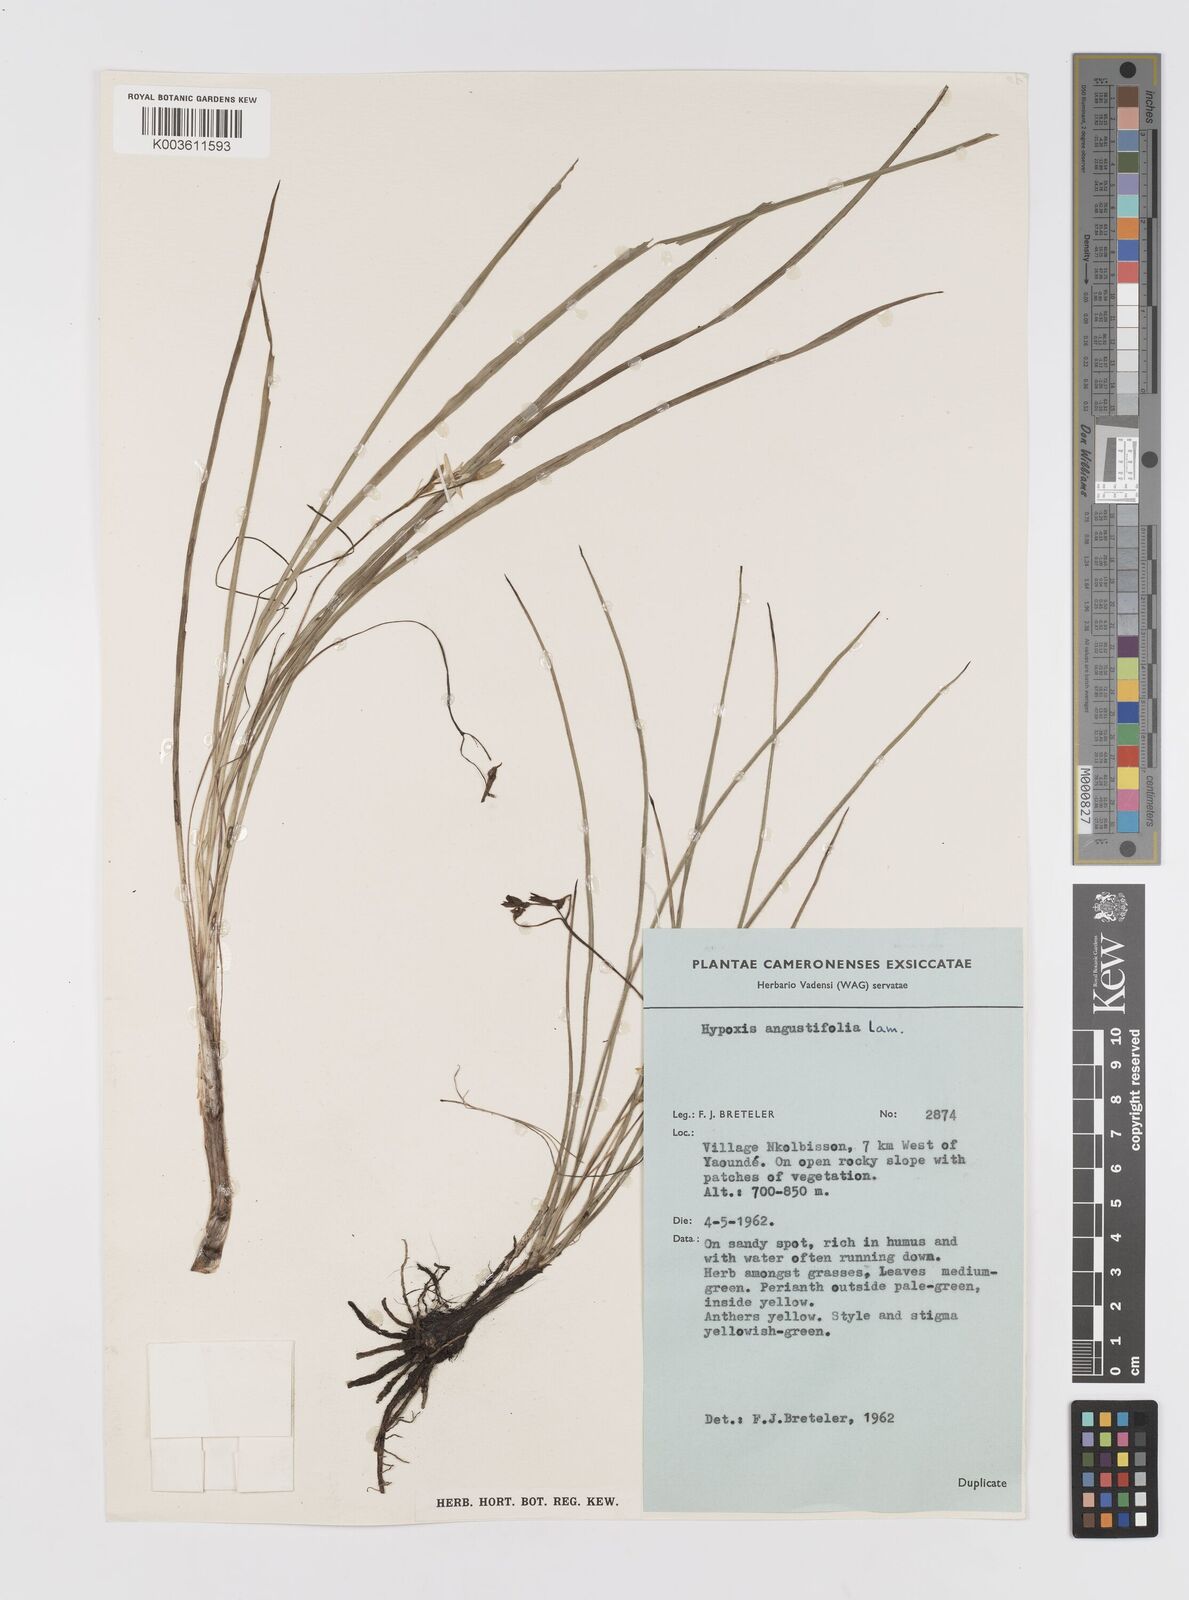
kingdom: Plantae
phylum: Tracheophyta
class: Liliopsida
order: Asparagales
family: Hypoxidaceae
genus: Hypoxis
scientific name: Hypoxis angustifolia
